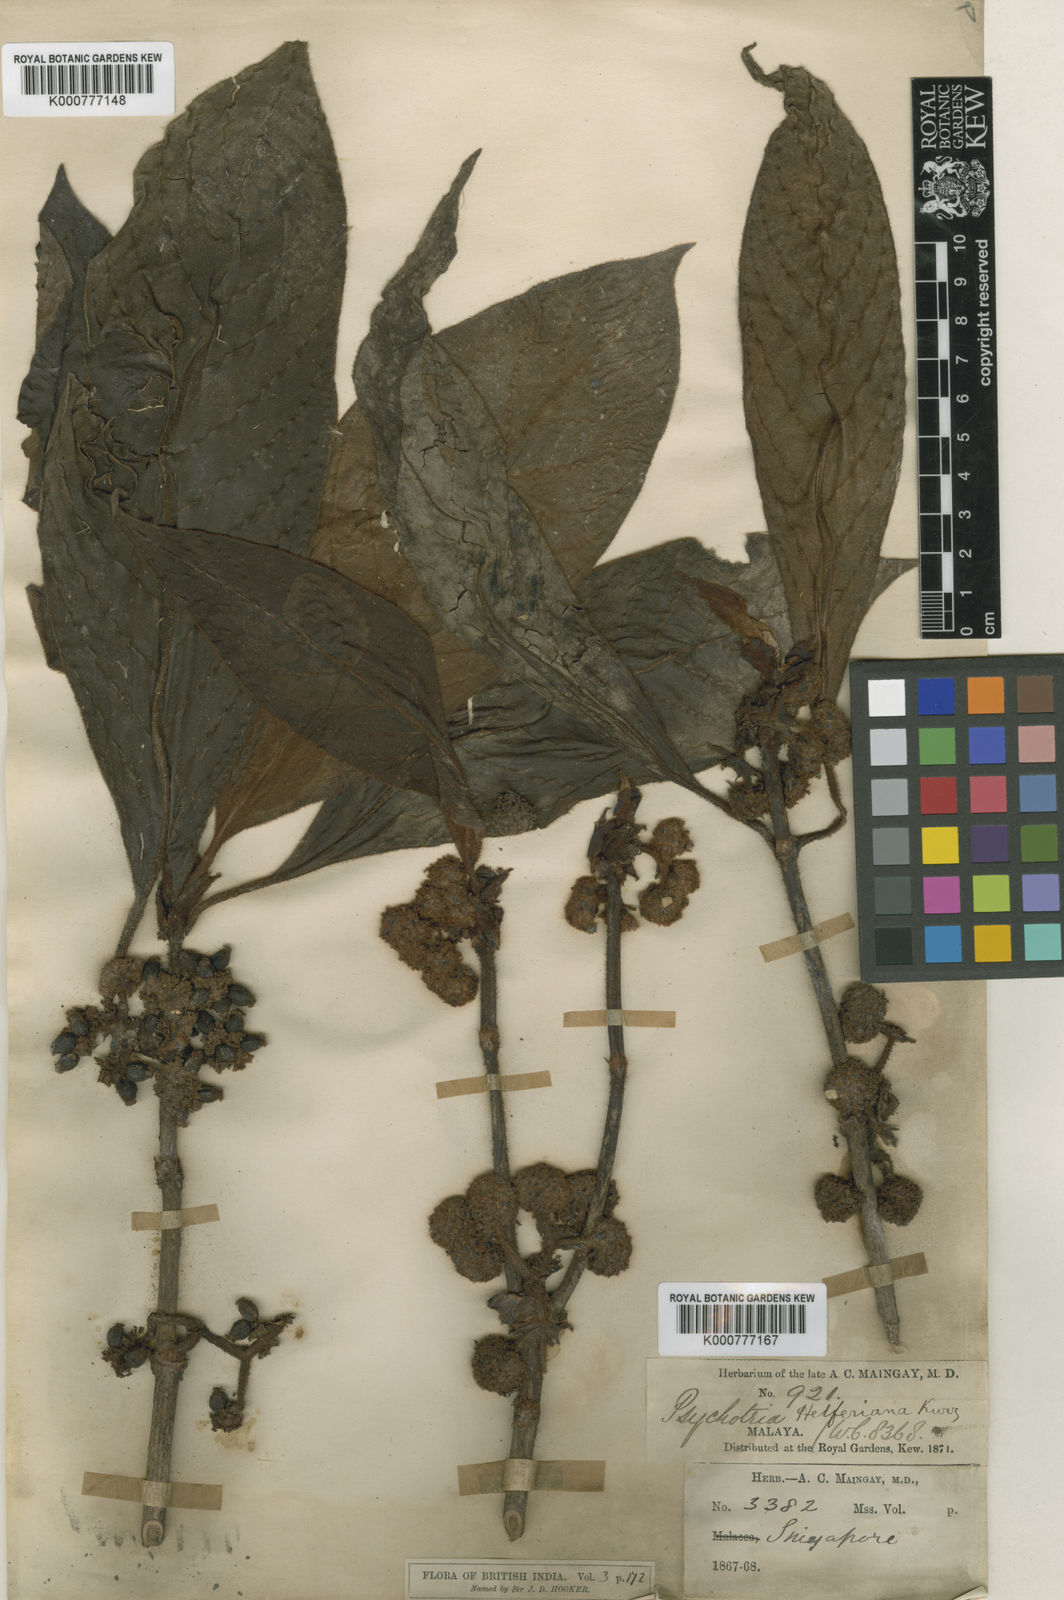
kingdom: Plantae
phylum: Tracheophyta
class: Magnoliopsida
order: Gentianales
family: Rubiaceae
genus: Psychotria
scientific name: Psychotria helferiana
